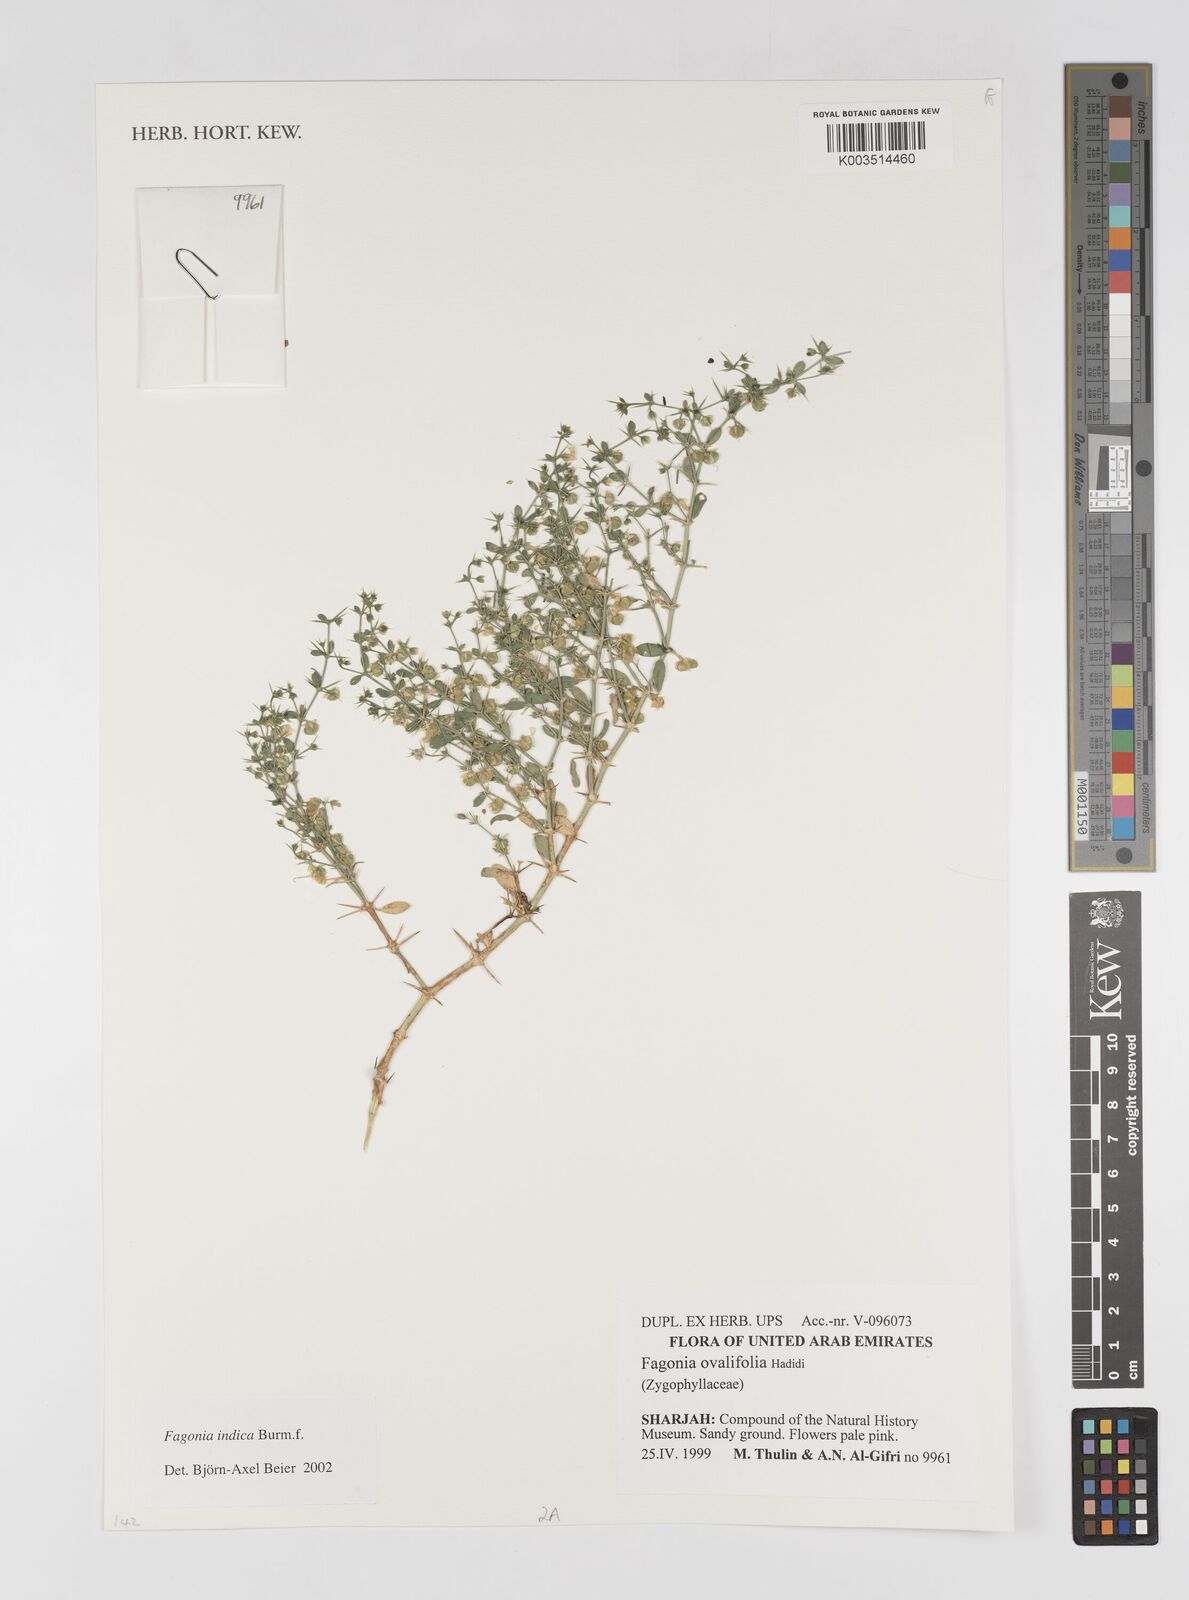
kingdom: Plantae
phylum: Tracheophyta
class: Magnoliopsida
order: Zygophyllales
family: Zygophyllaceae
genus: Fagonia
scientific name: Fagonia indica
